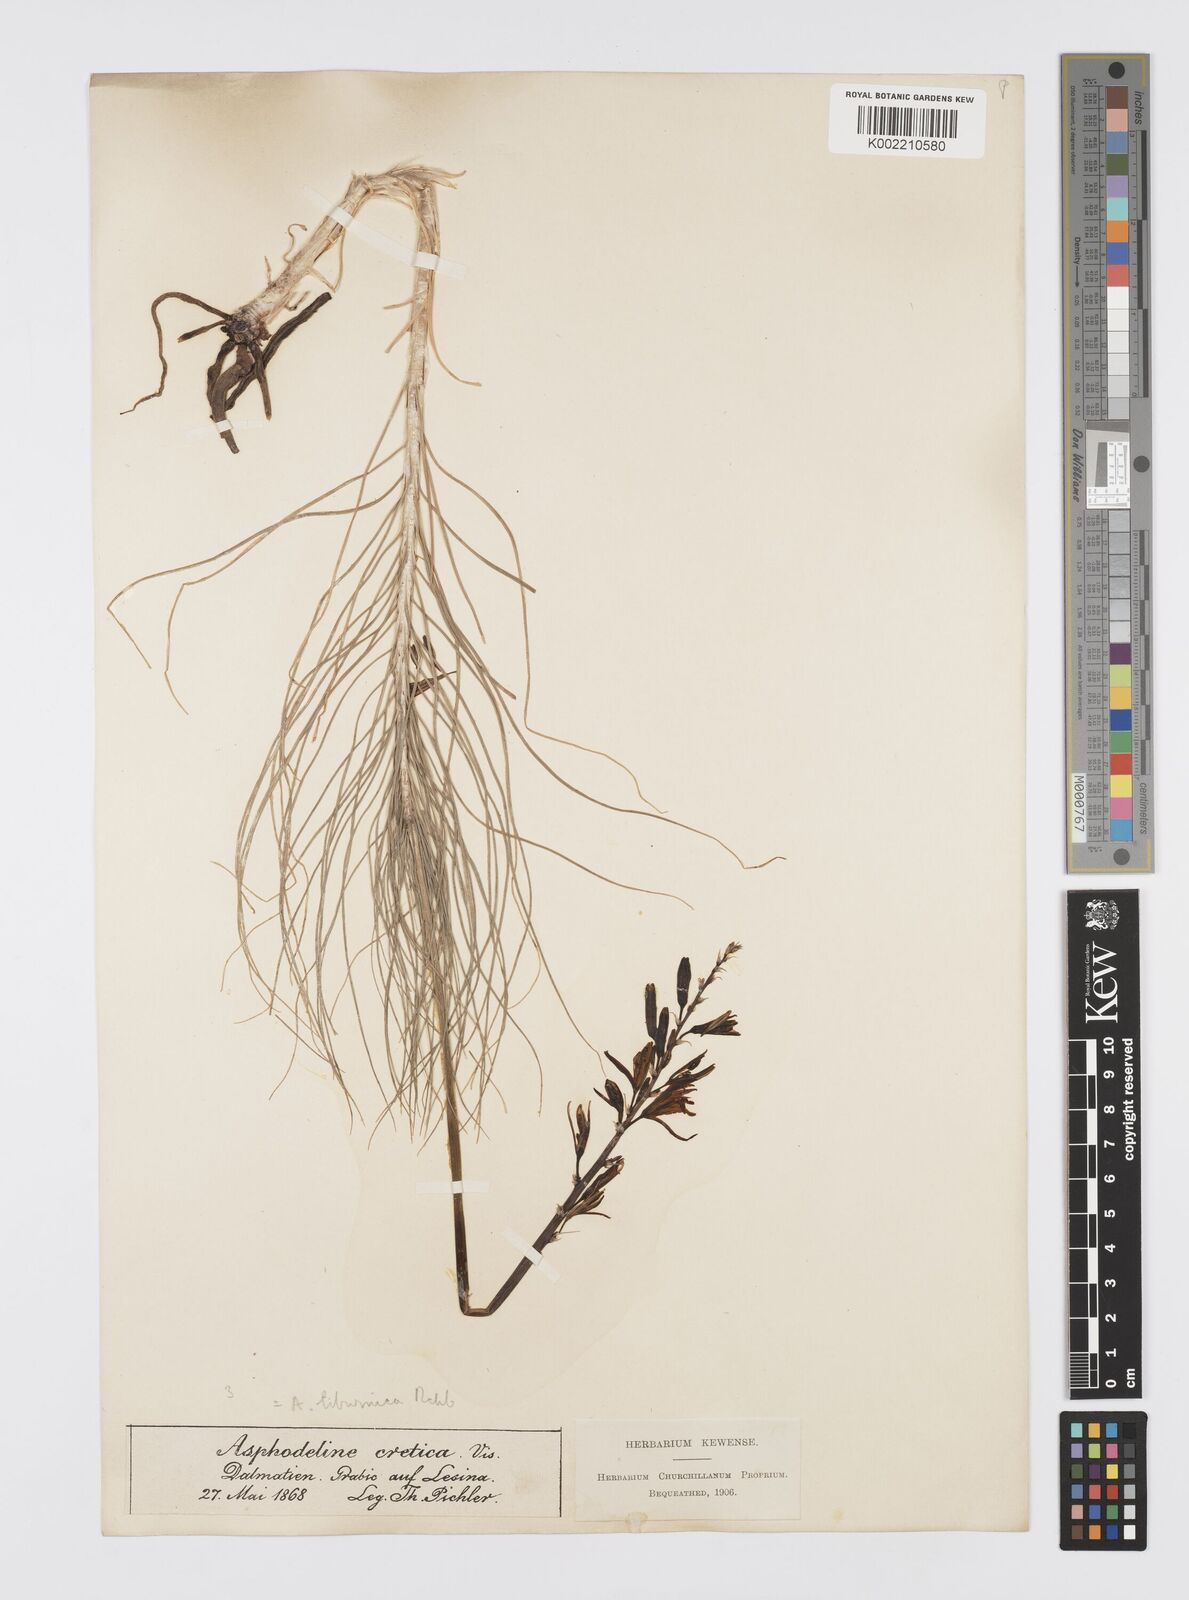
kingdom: Plantae
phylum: Tracheophyta
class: Liliopsida
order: Asparagales
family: Asphodelaceae
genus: Asphodeline
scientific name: Asphodeline liburnica
